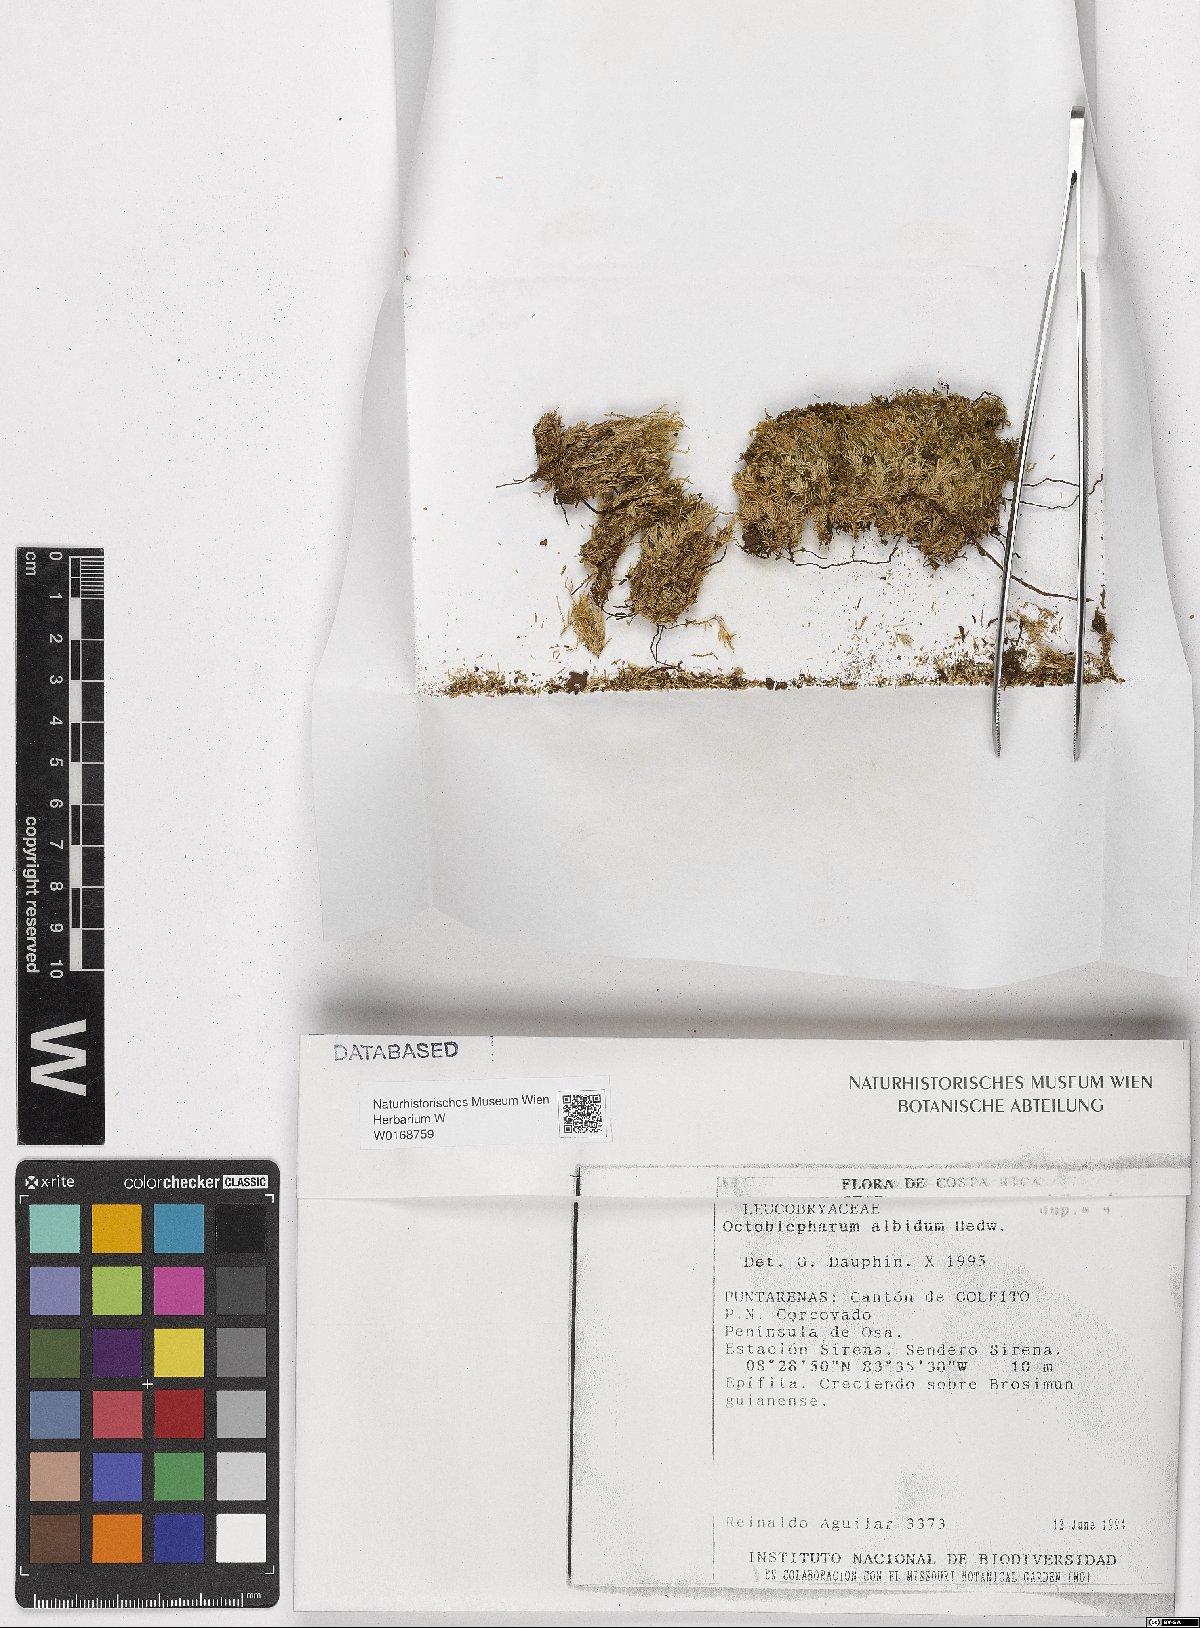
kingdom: Plantae
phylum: Bryophyta
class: Bryopsida
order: Dicranales
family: Octoblepharaceae
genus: Octoblepharum
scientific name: Octoblepharum albidum
